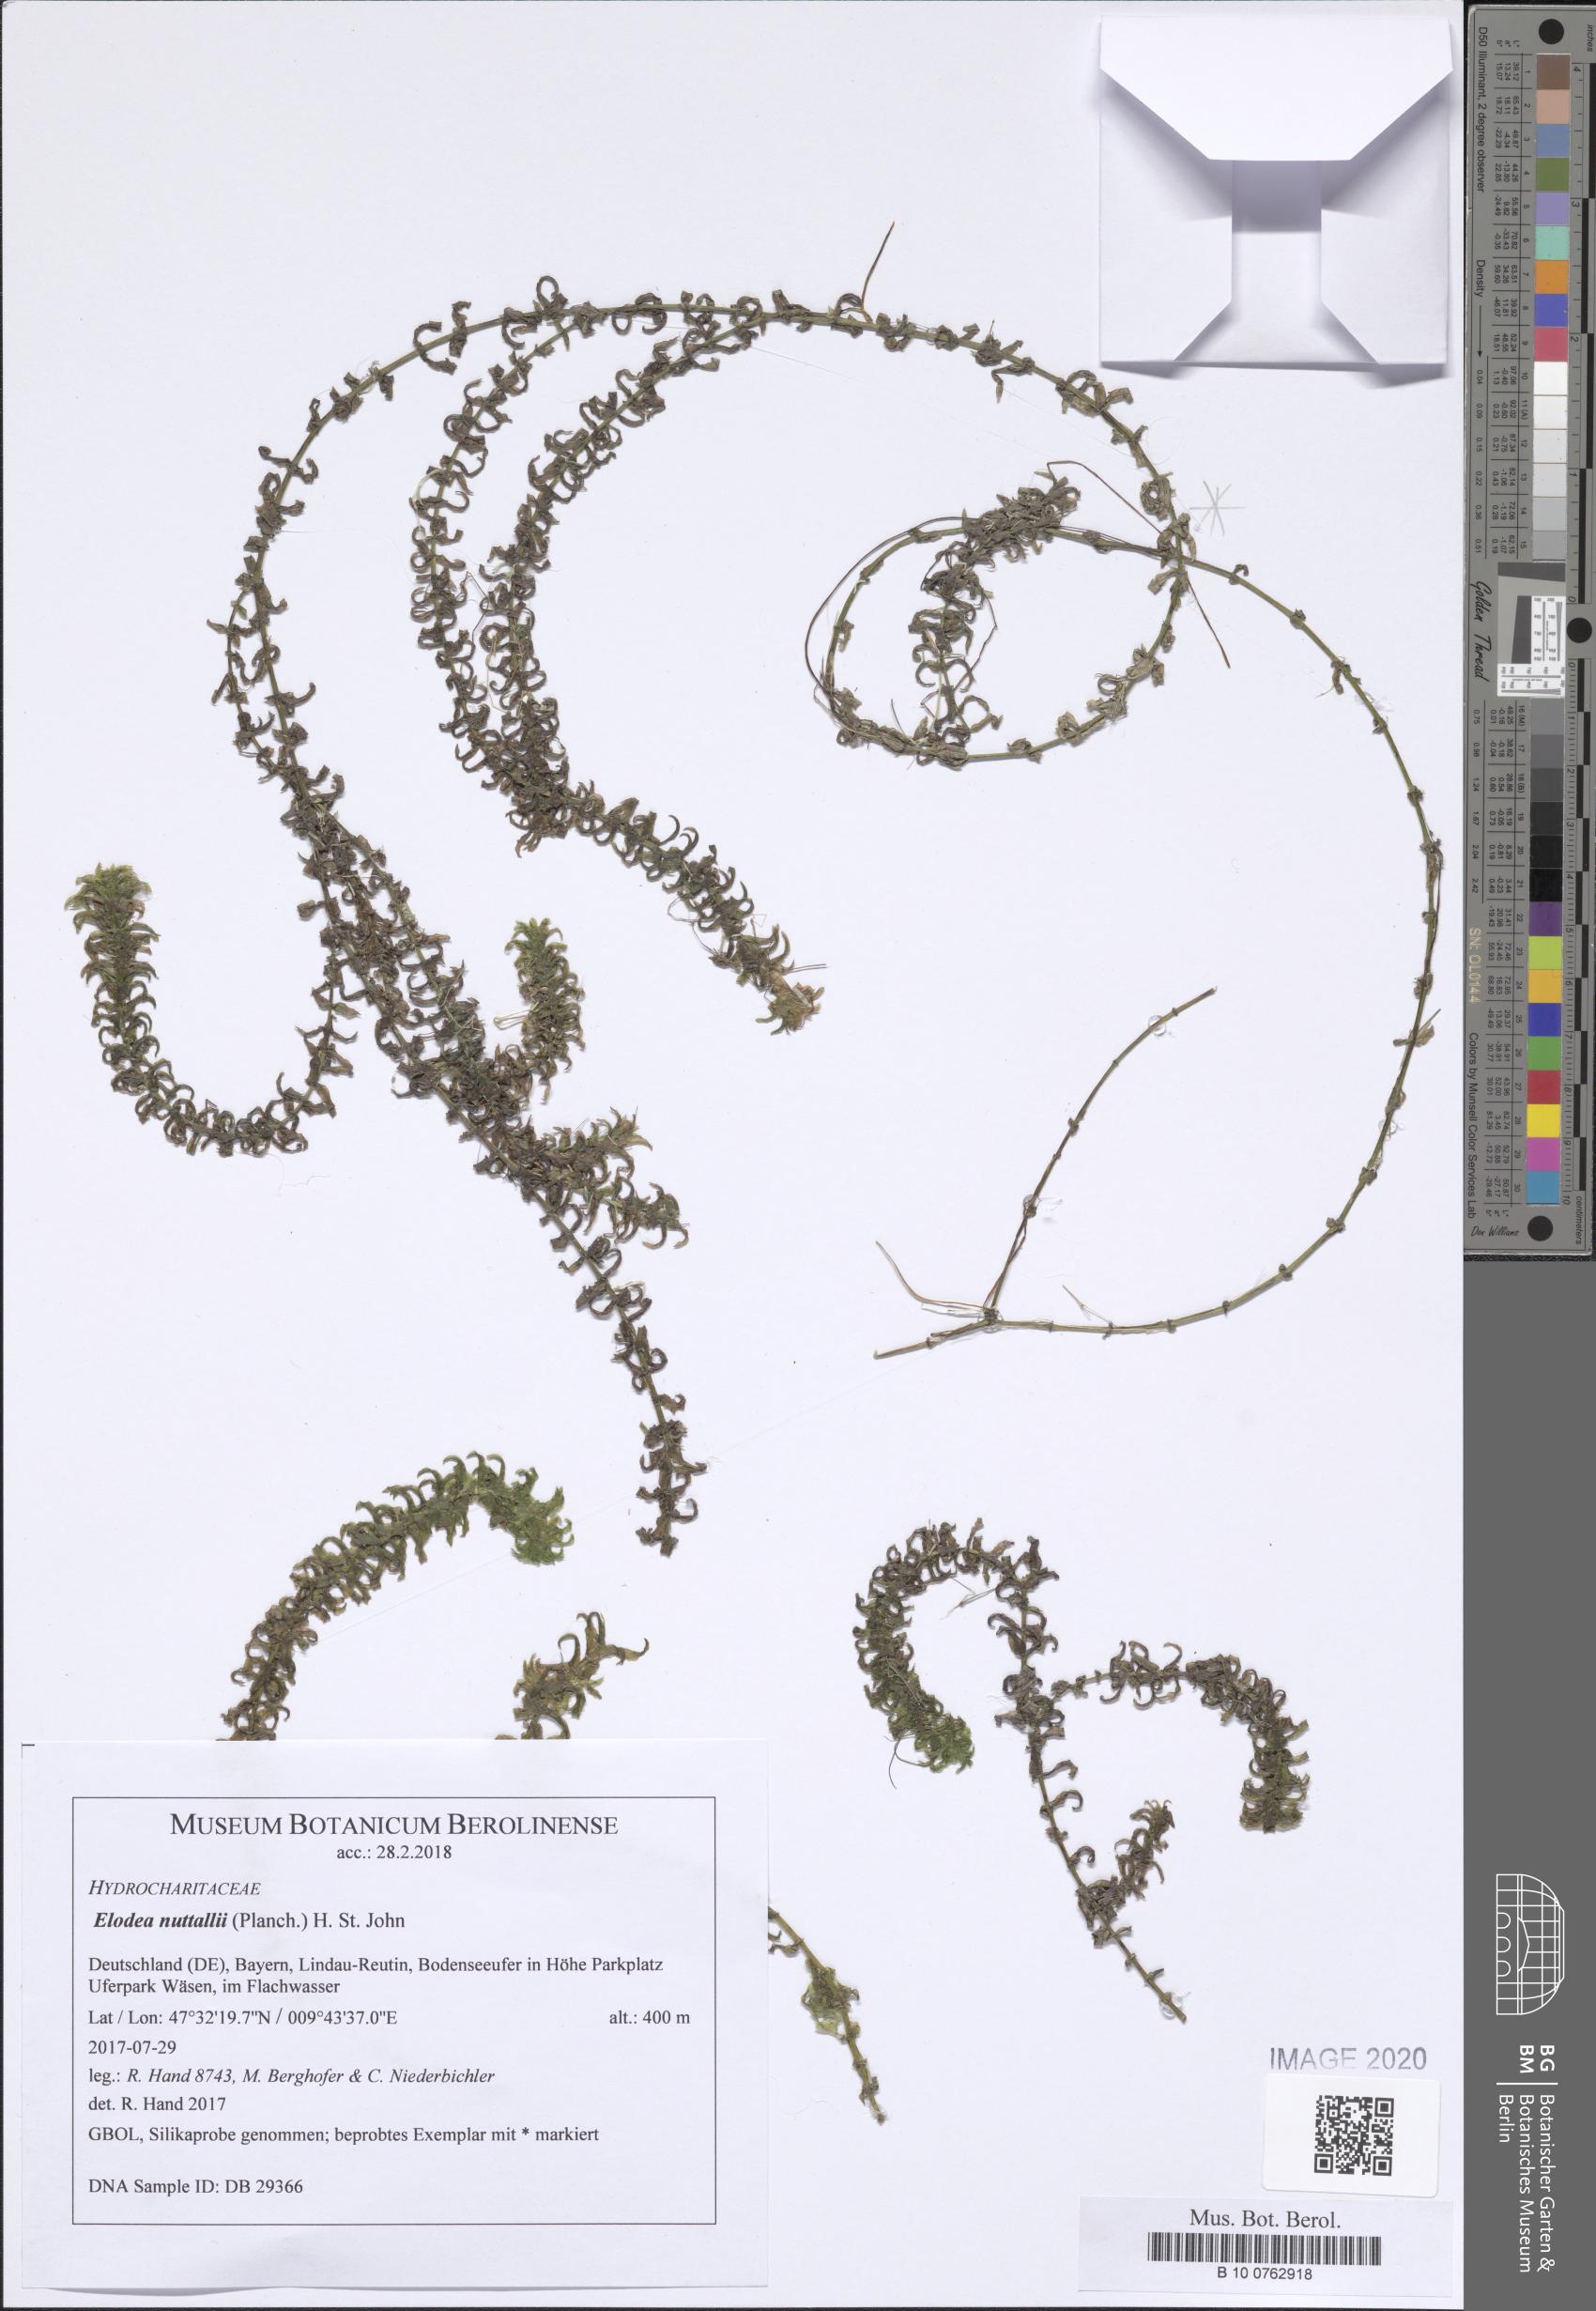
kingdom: Plantae
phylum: Tracheophyta
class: Liliopsida
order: Alismatales
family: Hydrocharitaceae
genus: Elodea
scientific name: Elodea nuttallii
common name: Nuttall's waterweed
